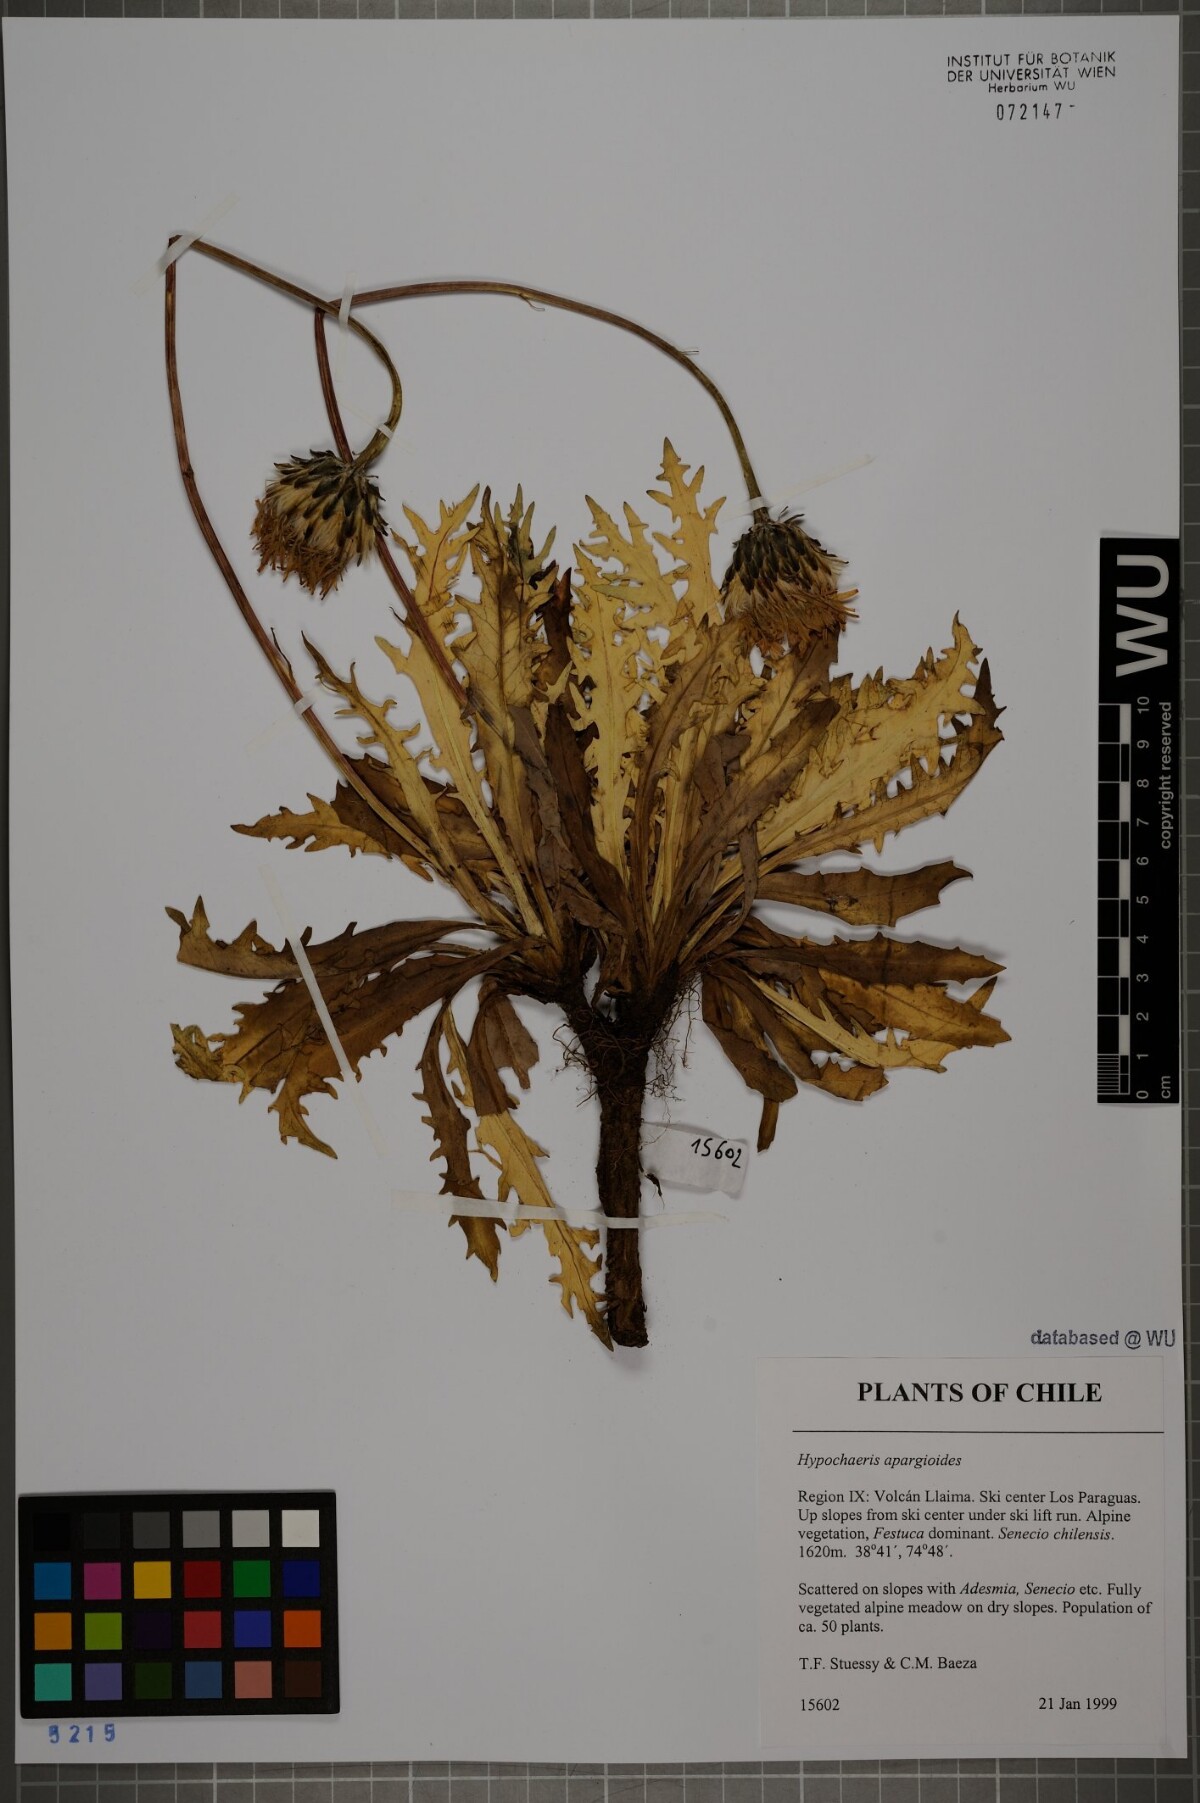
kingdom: Plantae
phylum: Tracheophyta
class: Magnoliopsida
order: Asterales
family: Asteraceae
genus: Hypochaeris
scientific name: Hypochaeris apargioides
